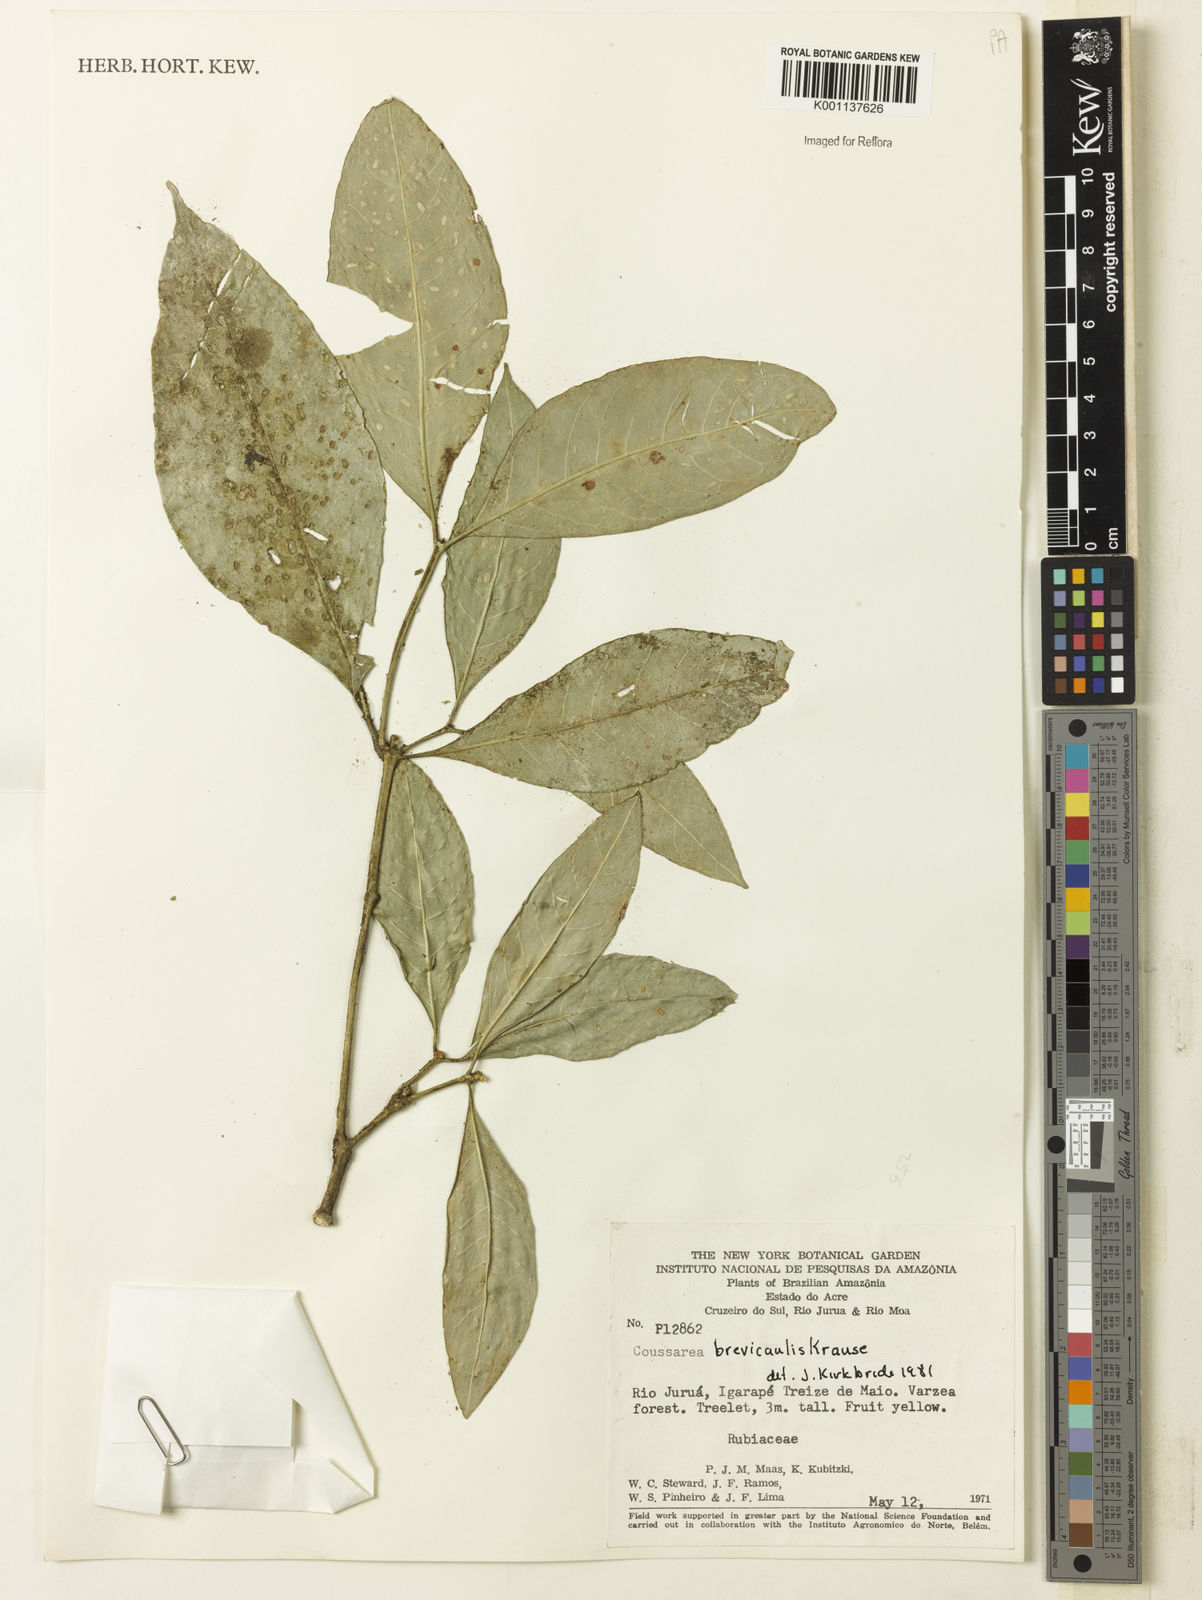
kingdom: Plantae
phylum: Tracheophyta
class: Magnoliopsida
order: Gentianales
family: Rubiaceae
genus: Coussarea
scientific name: Coussarea brevicaulis
